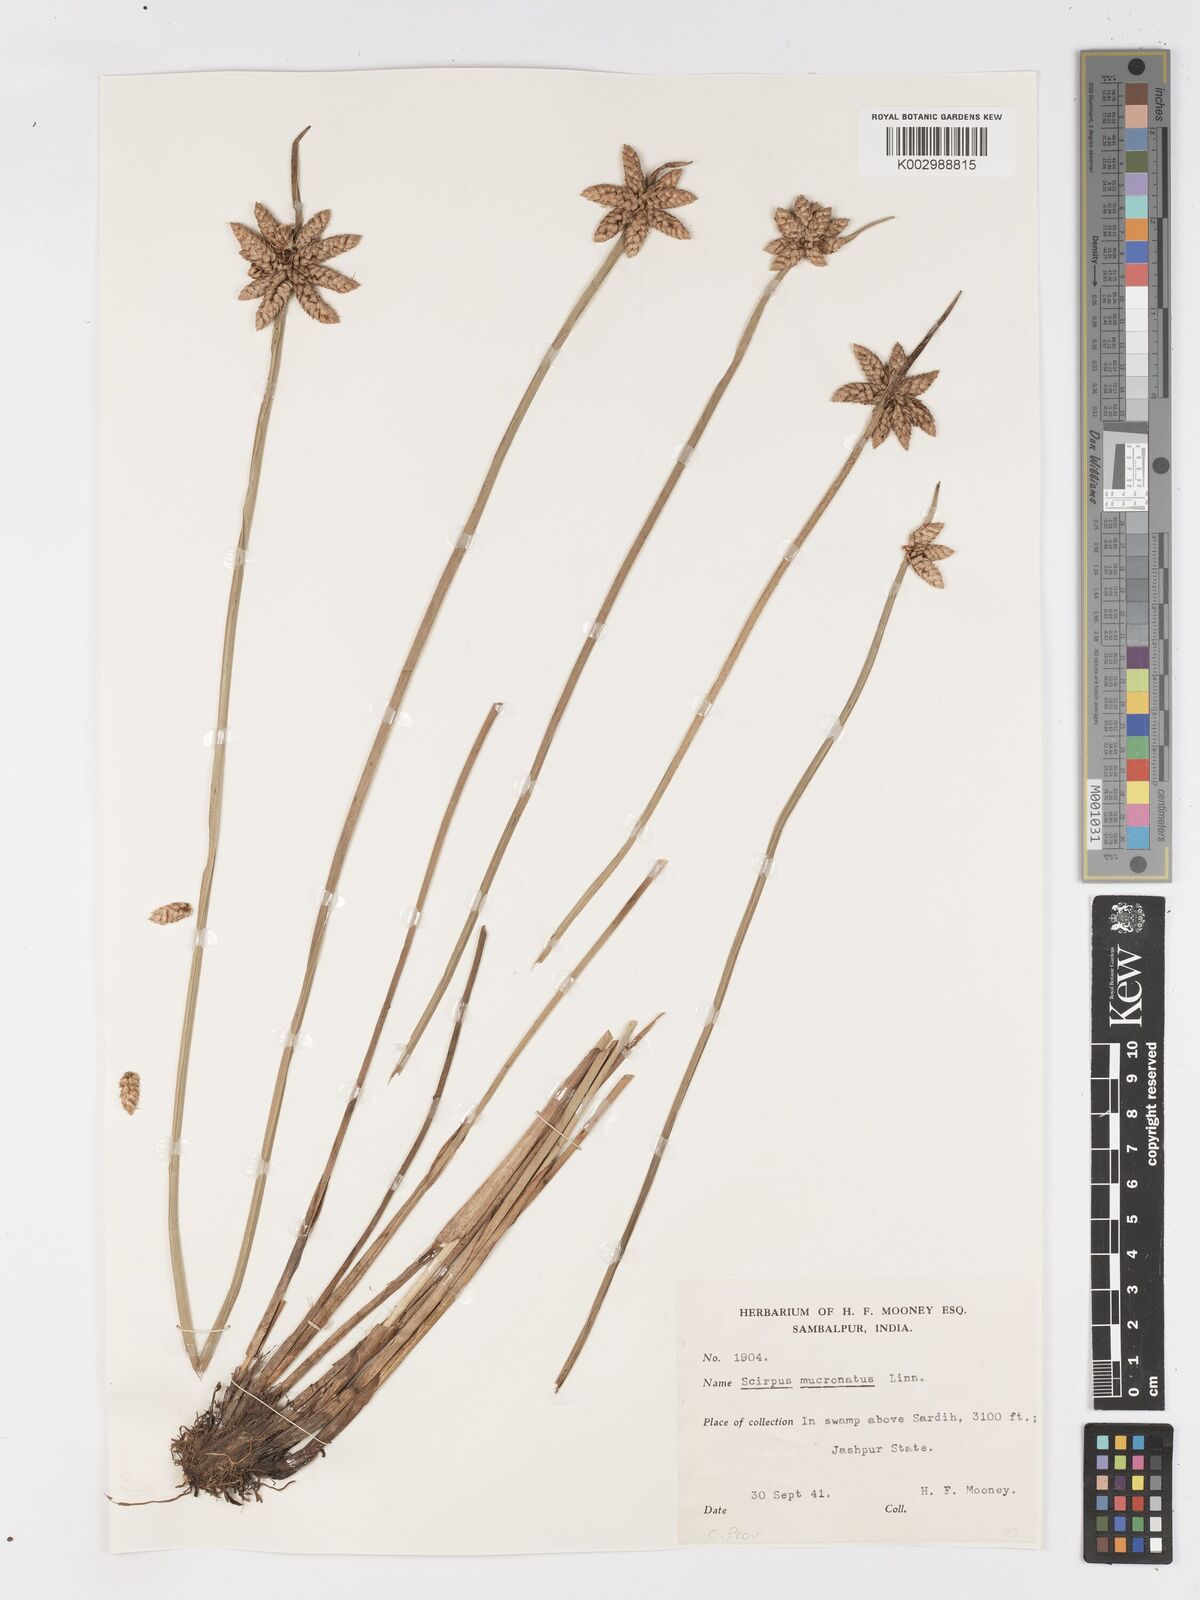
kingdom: Plantae
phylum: Tracheophyta
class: Liliopsida
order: Poales
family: Cyperaceae
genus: Schoenoplectiella
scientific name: Schoenoplectiella mucronata
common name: Bog bulrush
